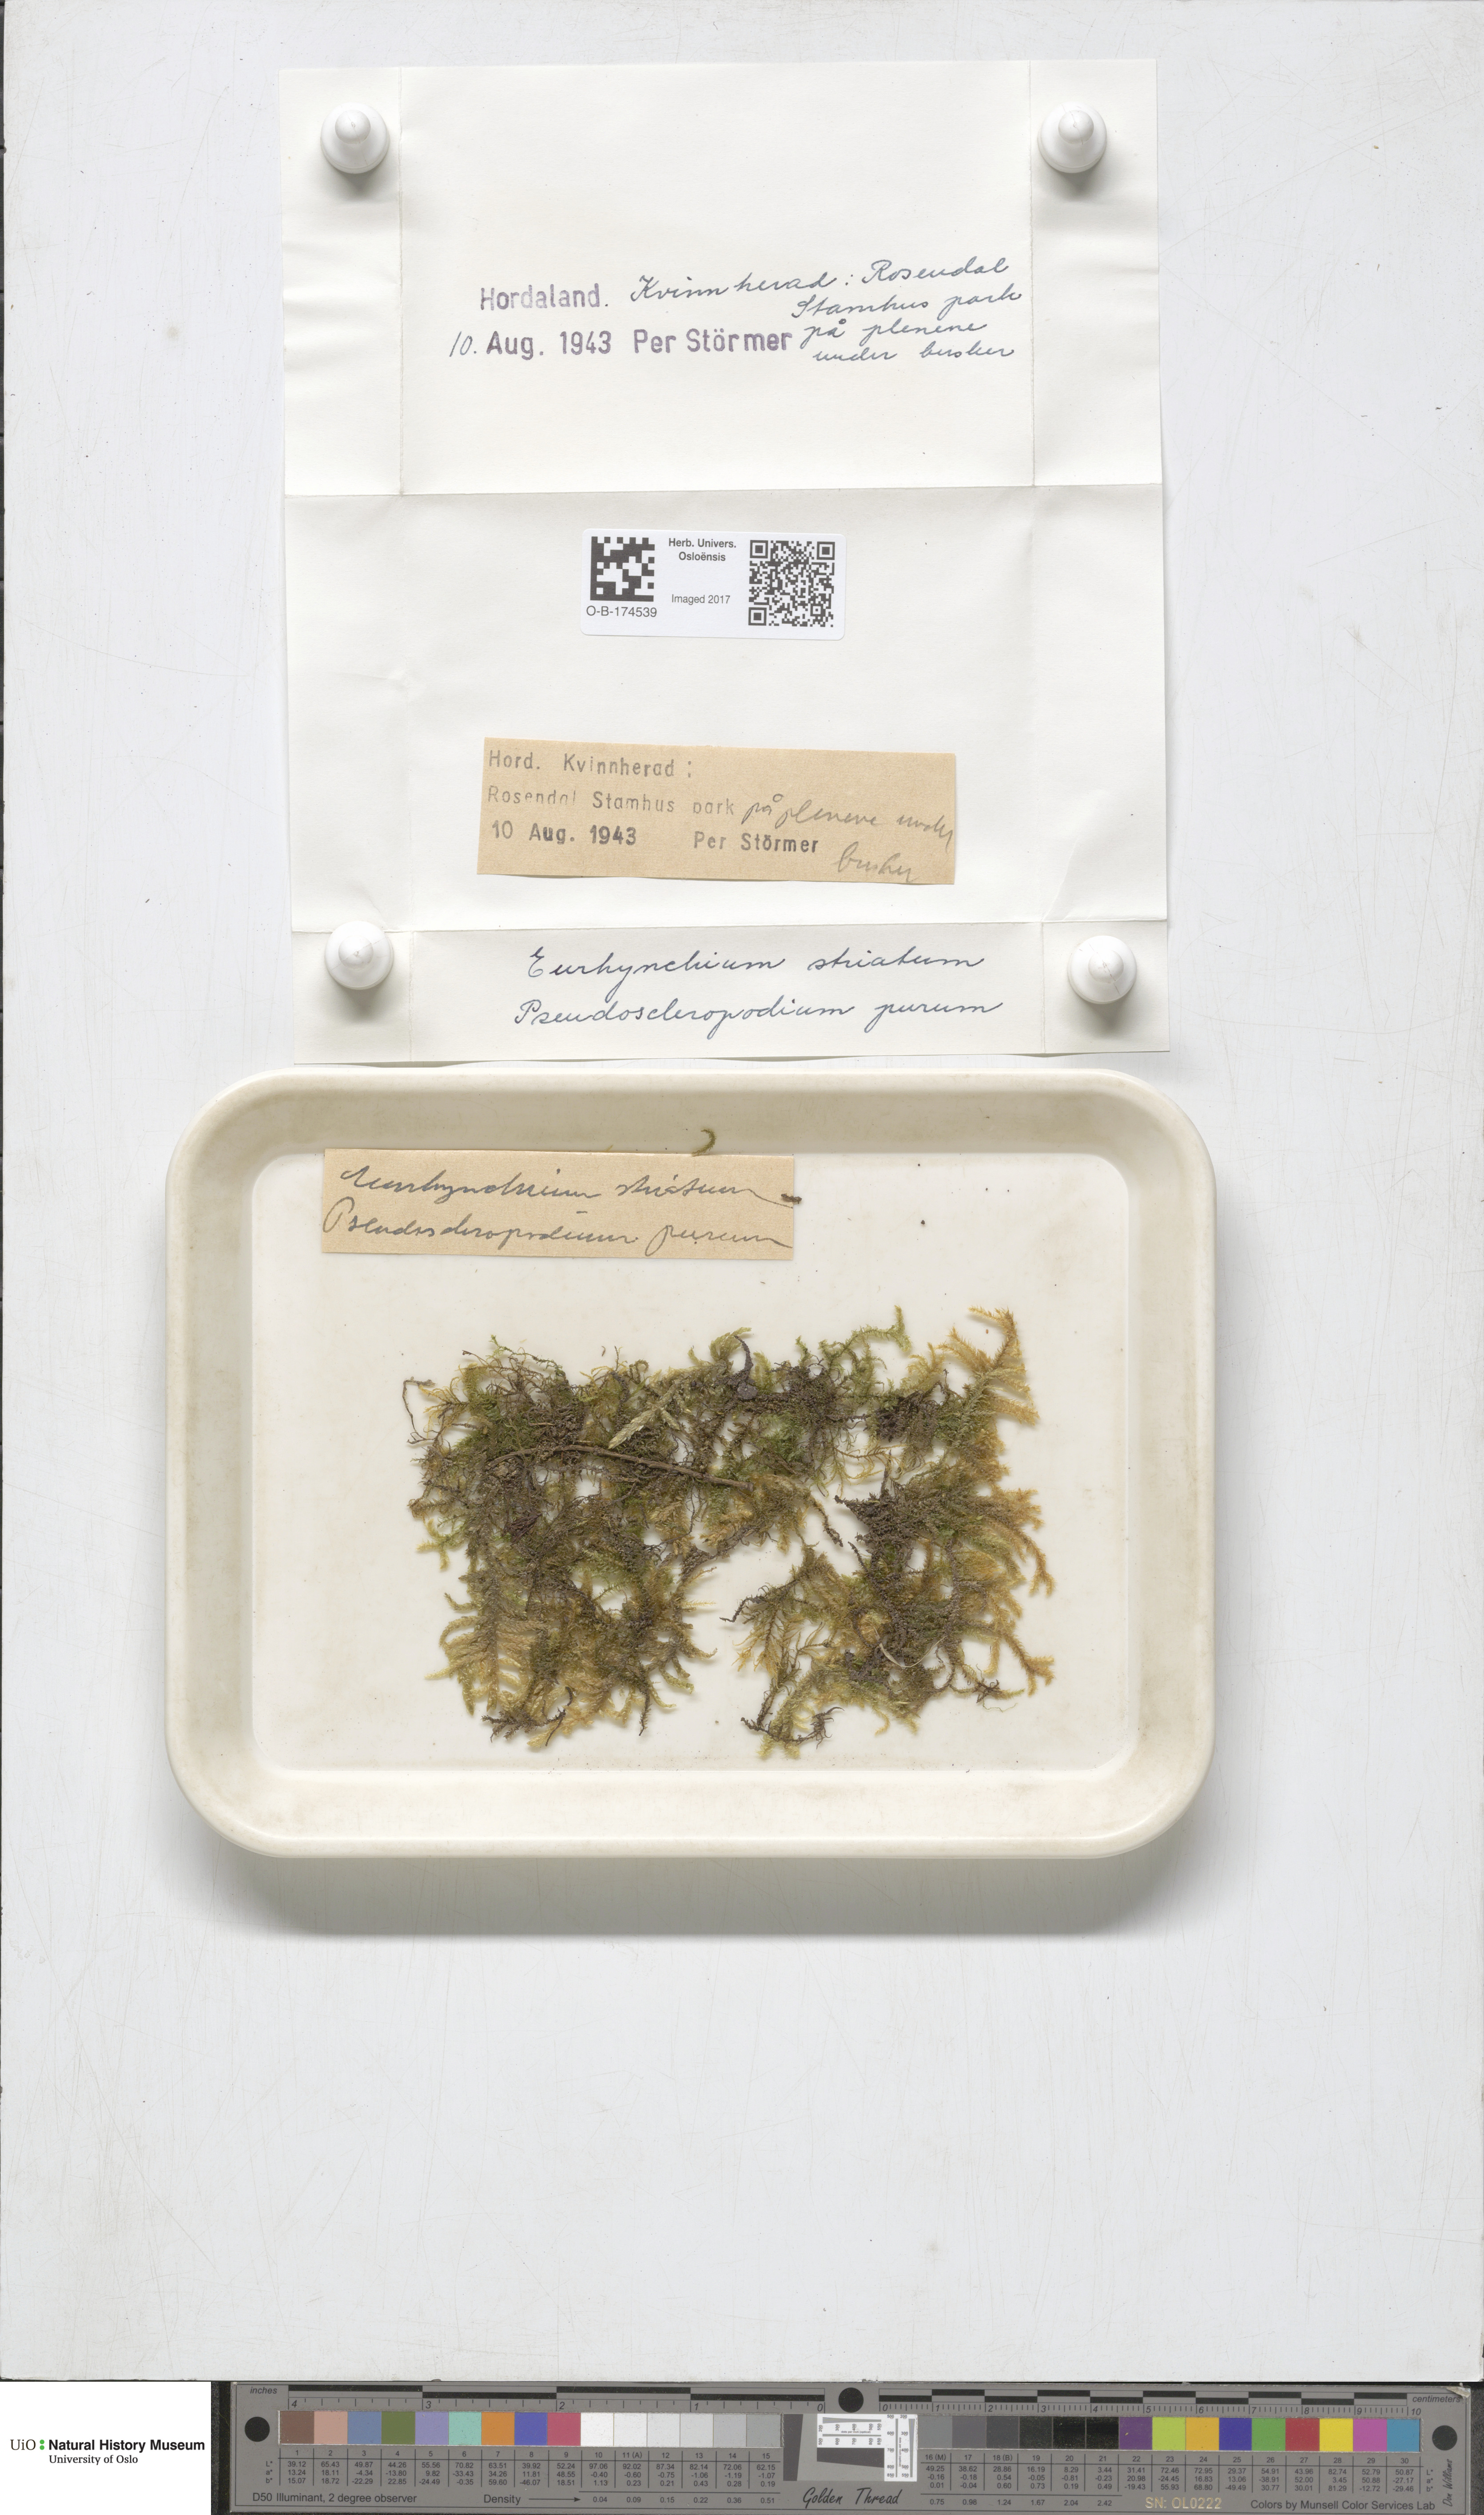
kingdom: Plantae
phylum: Bryophyta
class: Bryopsida
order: Hypnales
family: Brachytheciaceae
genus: Eurhynchium
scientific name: Eurhynchium striatum
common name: Common striated feather-moss
